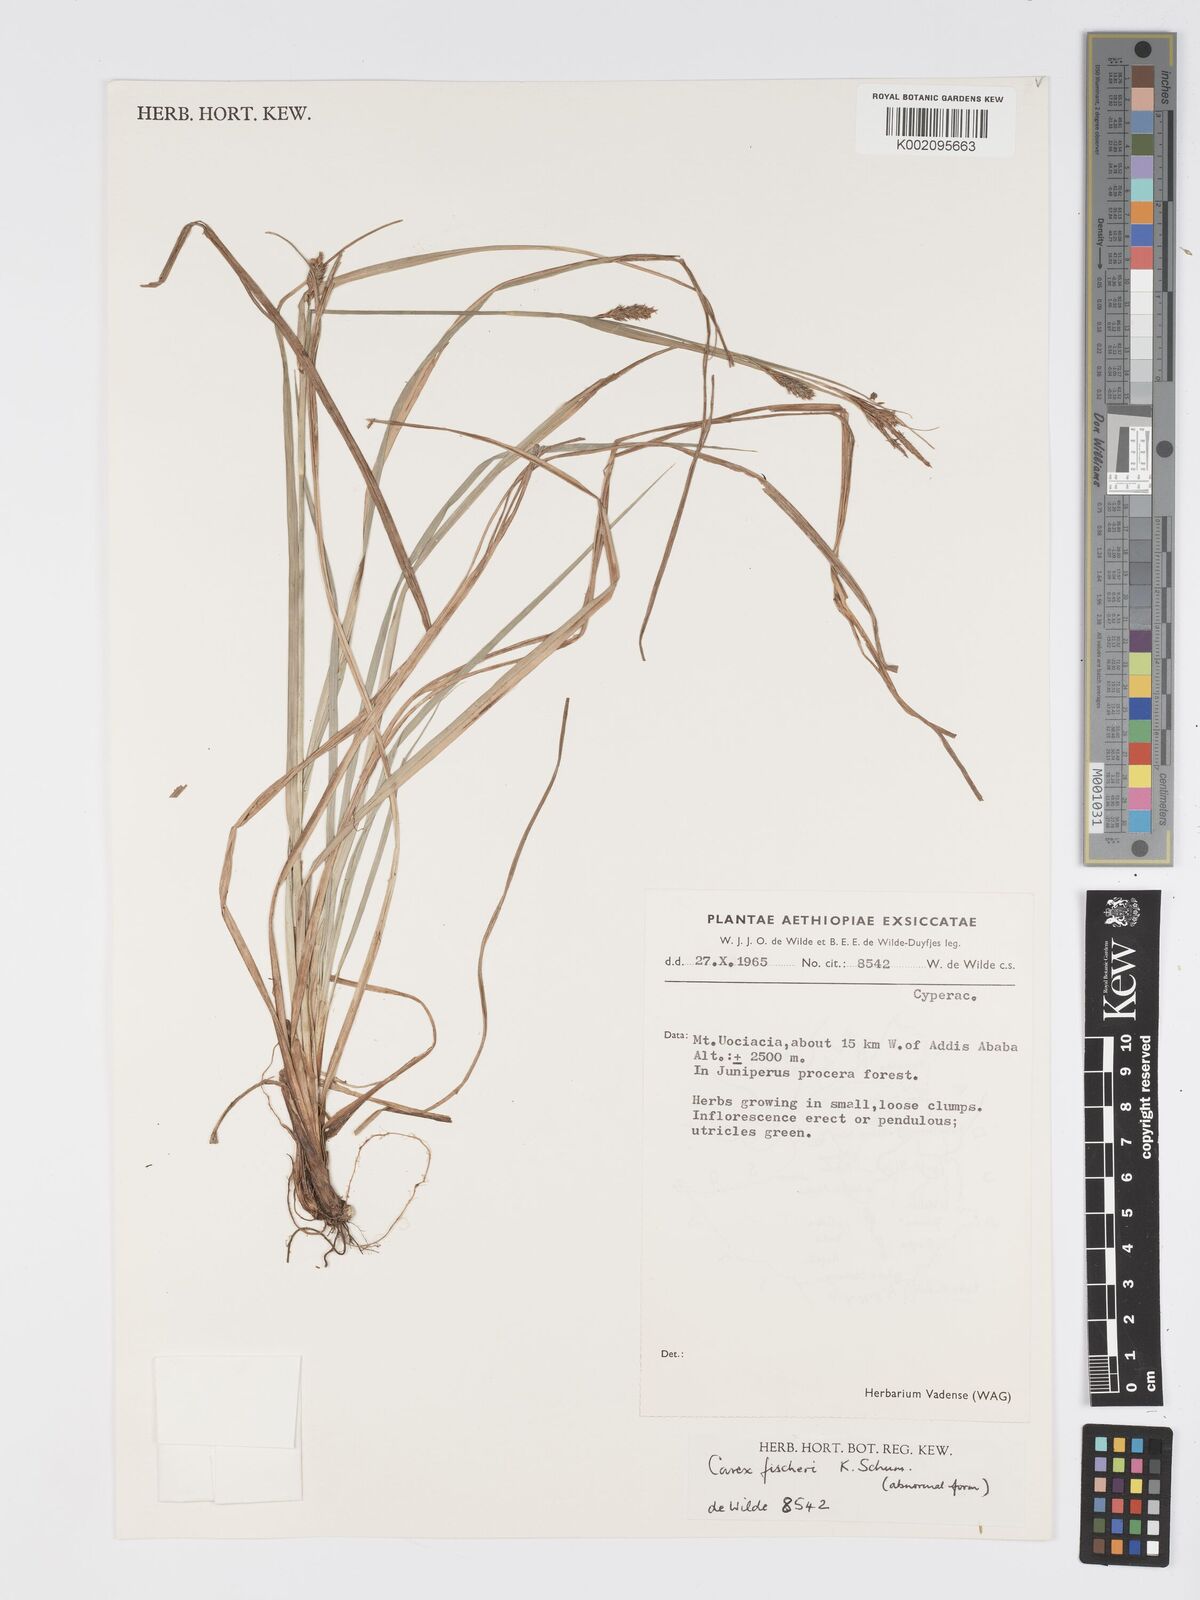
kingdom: Plantae
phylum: Tracheophyta
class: Liliopsida
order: Poales
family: Cyperaceae
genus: Carex
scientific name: Carex fischeri
